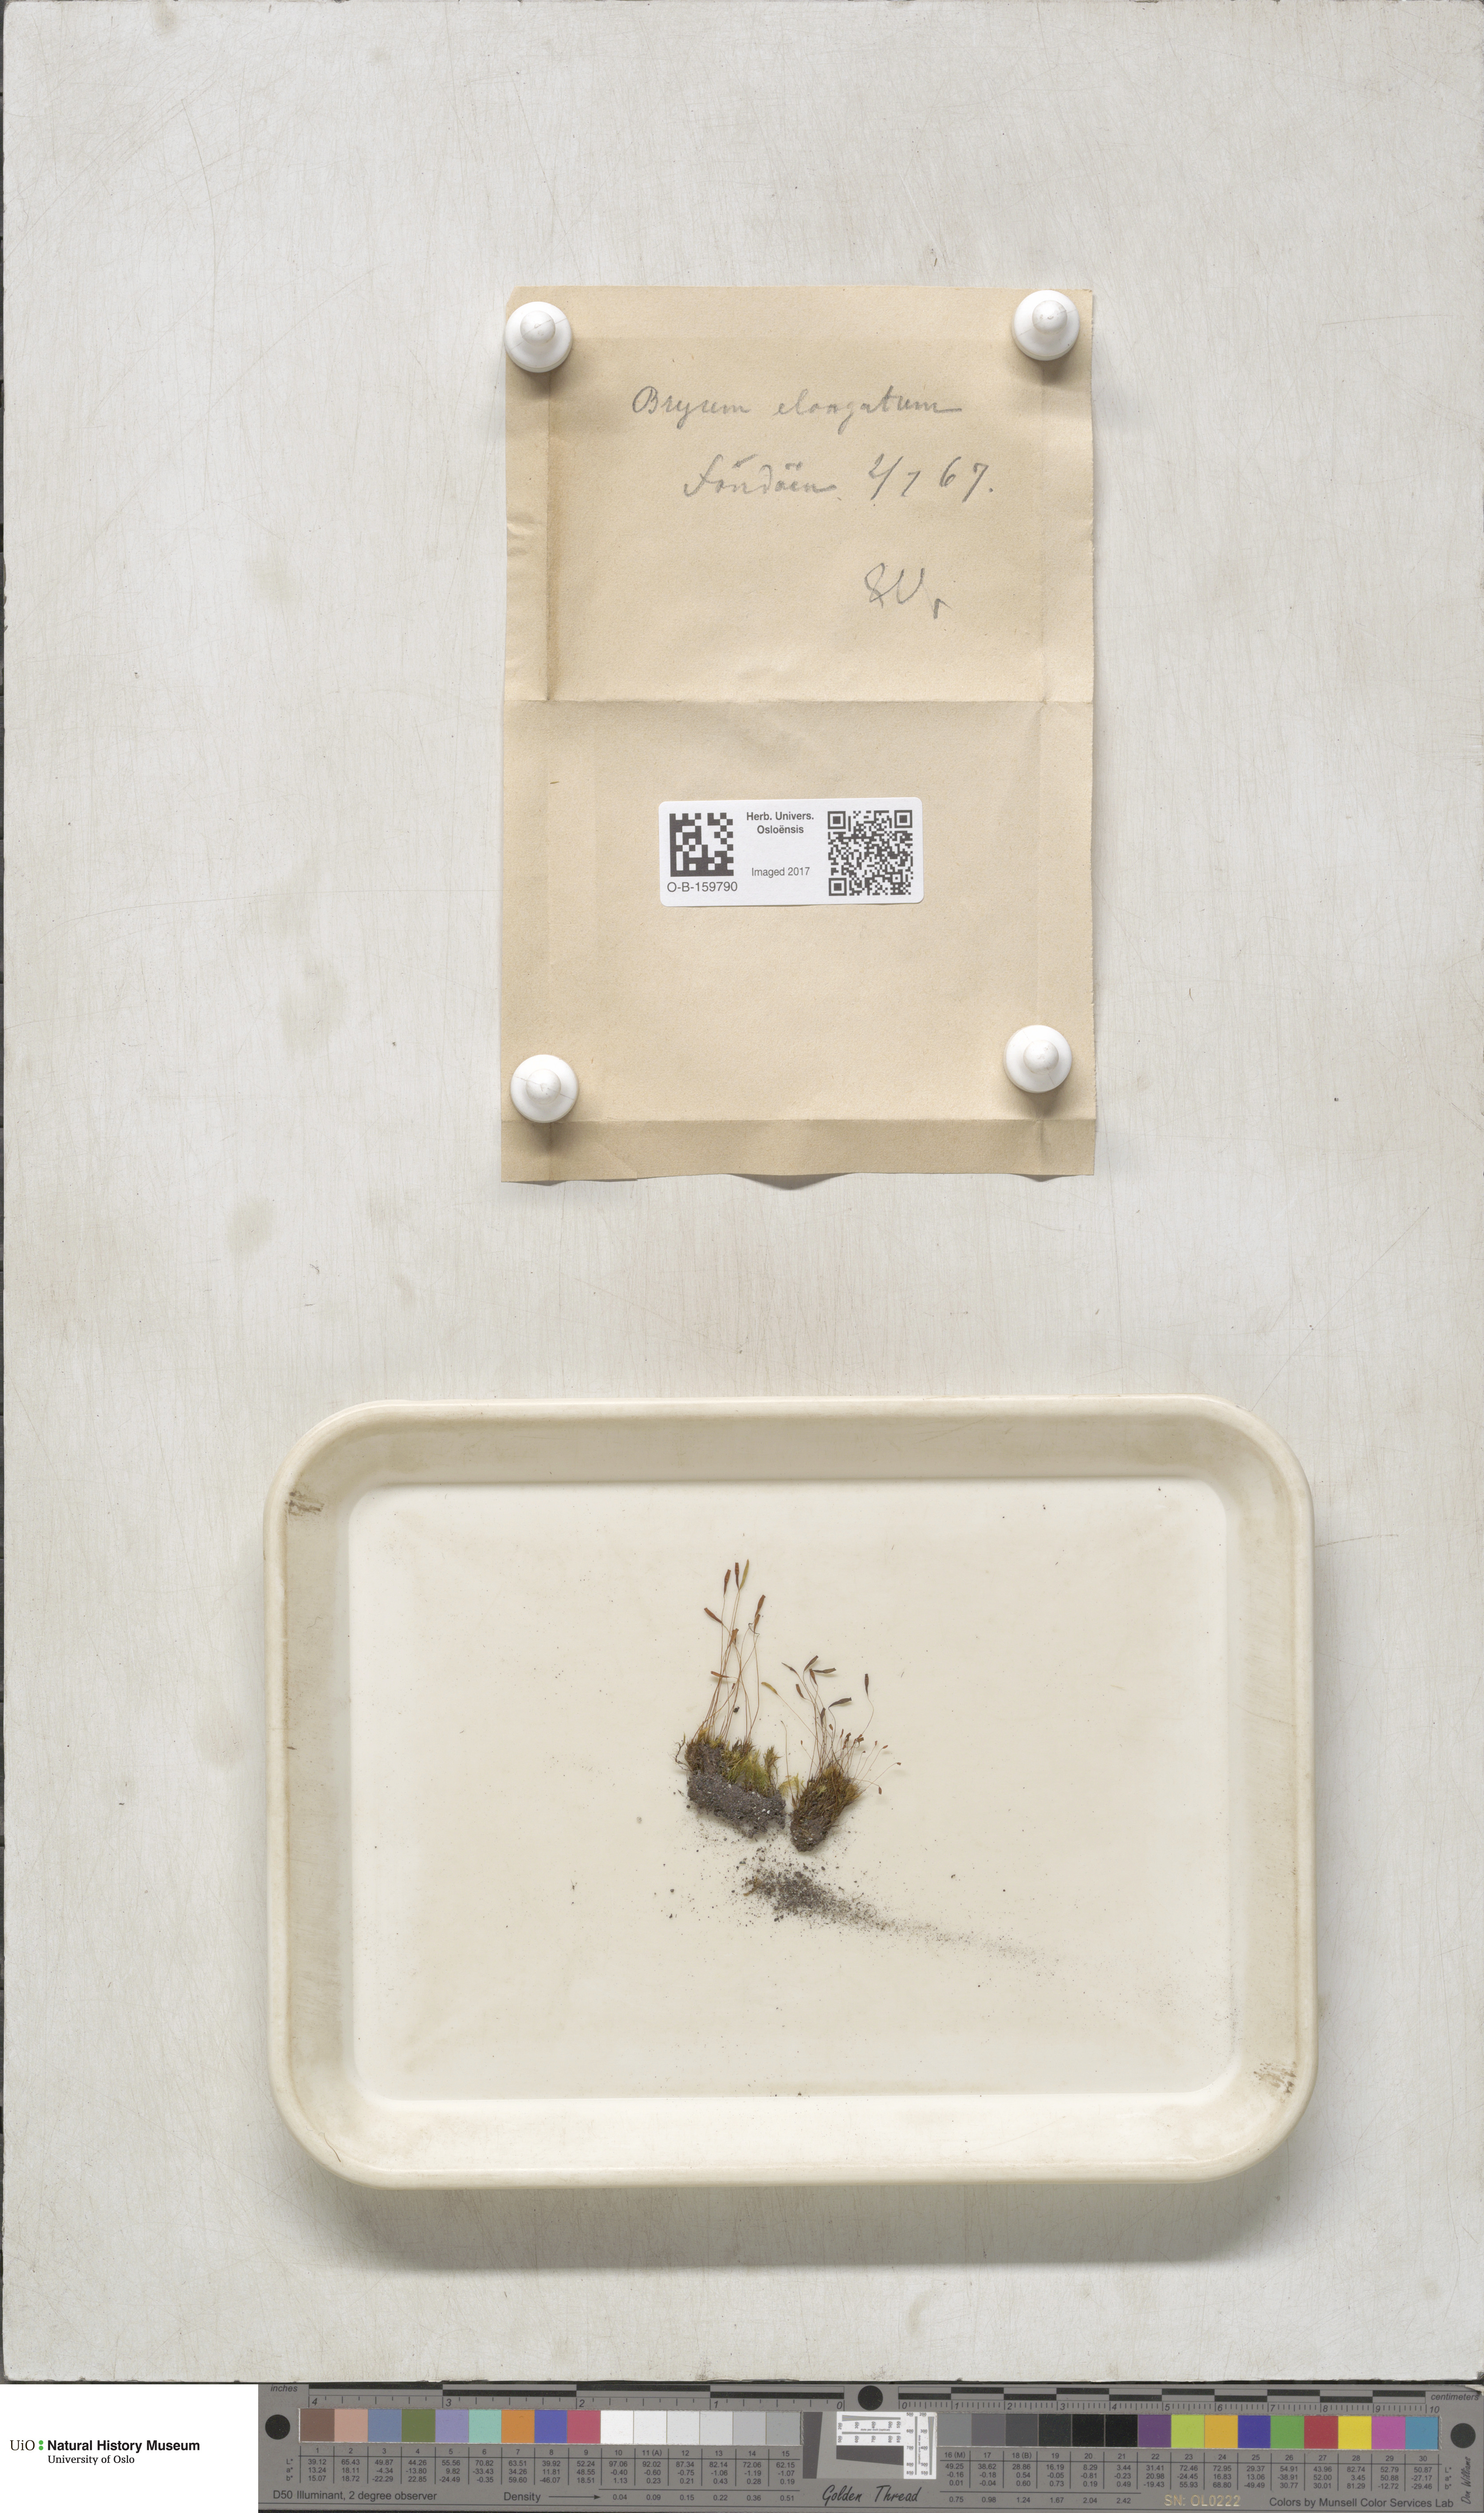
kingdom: Plantae
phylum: Bryophyta
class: Bryopsida
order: Bryales
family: Mniaceae
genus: Pohlia
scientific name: Pohlia elongata
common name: Long-fruited thread-moss
